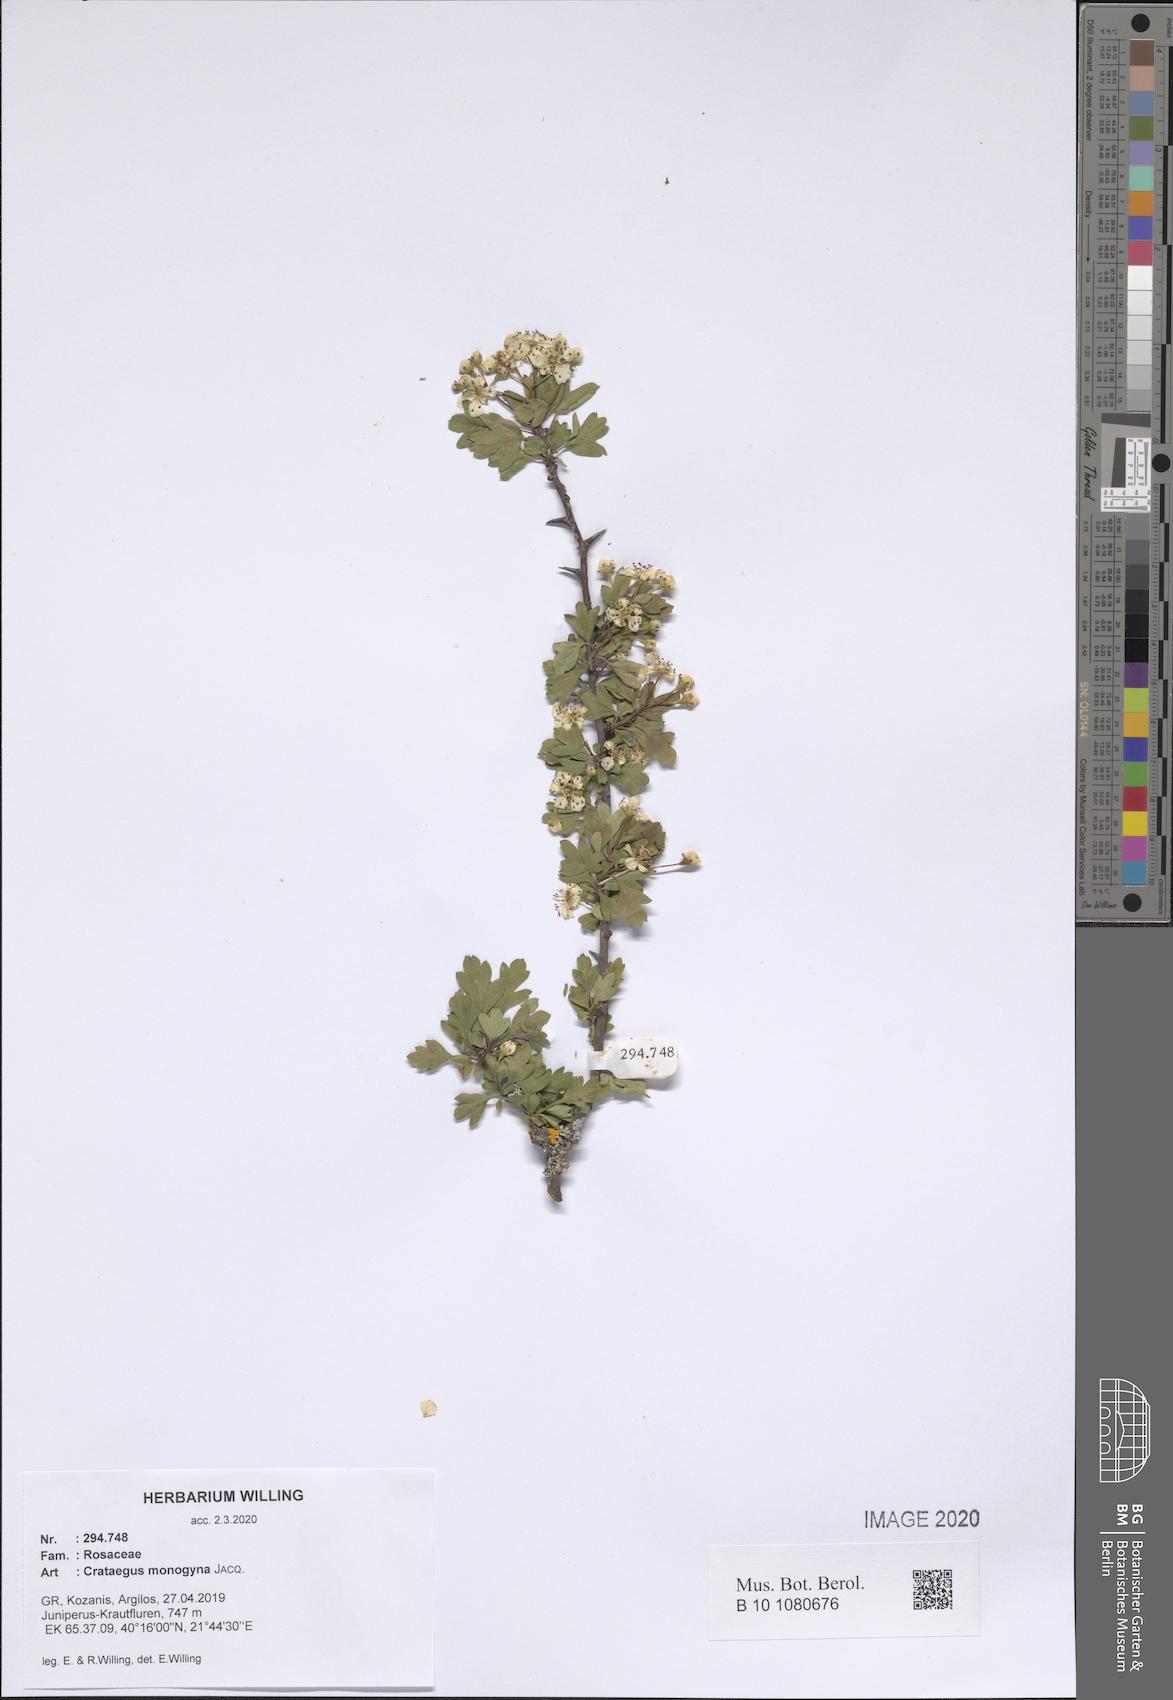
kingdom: Plantae
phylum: Tracheophyta
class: Magnoliopsida
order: Rosales
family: Rosaceae
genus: Crataegus
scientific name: Crataegus monogyna
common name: Hawthorn
